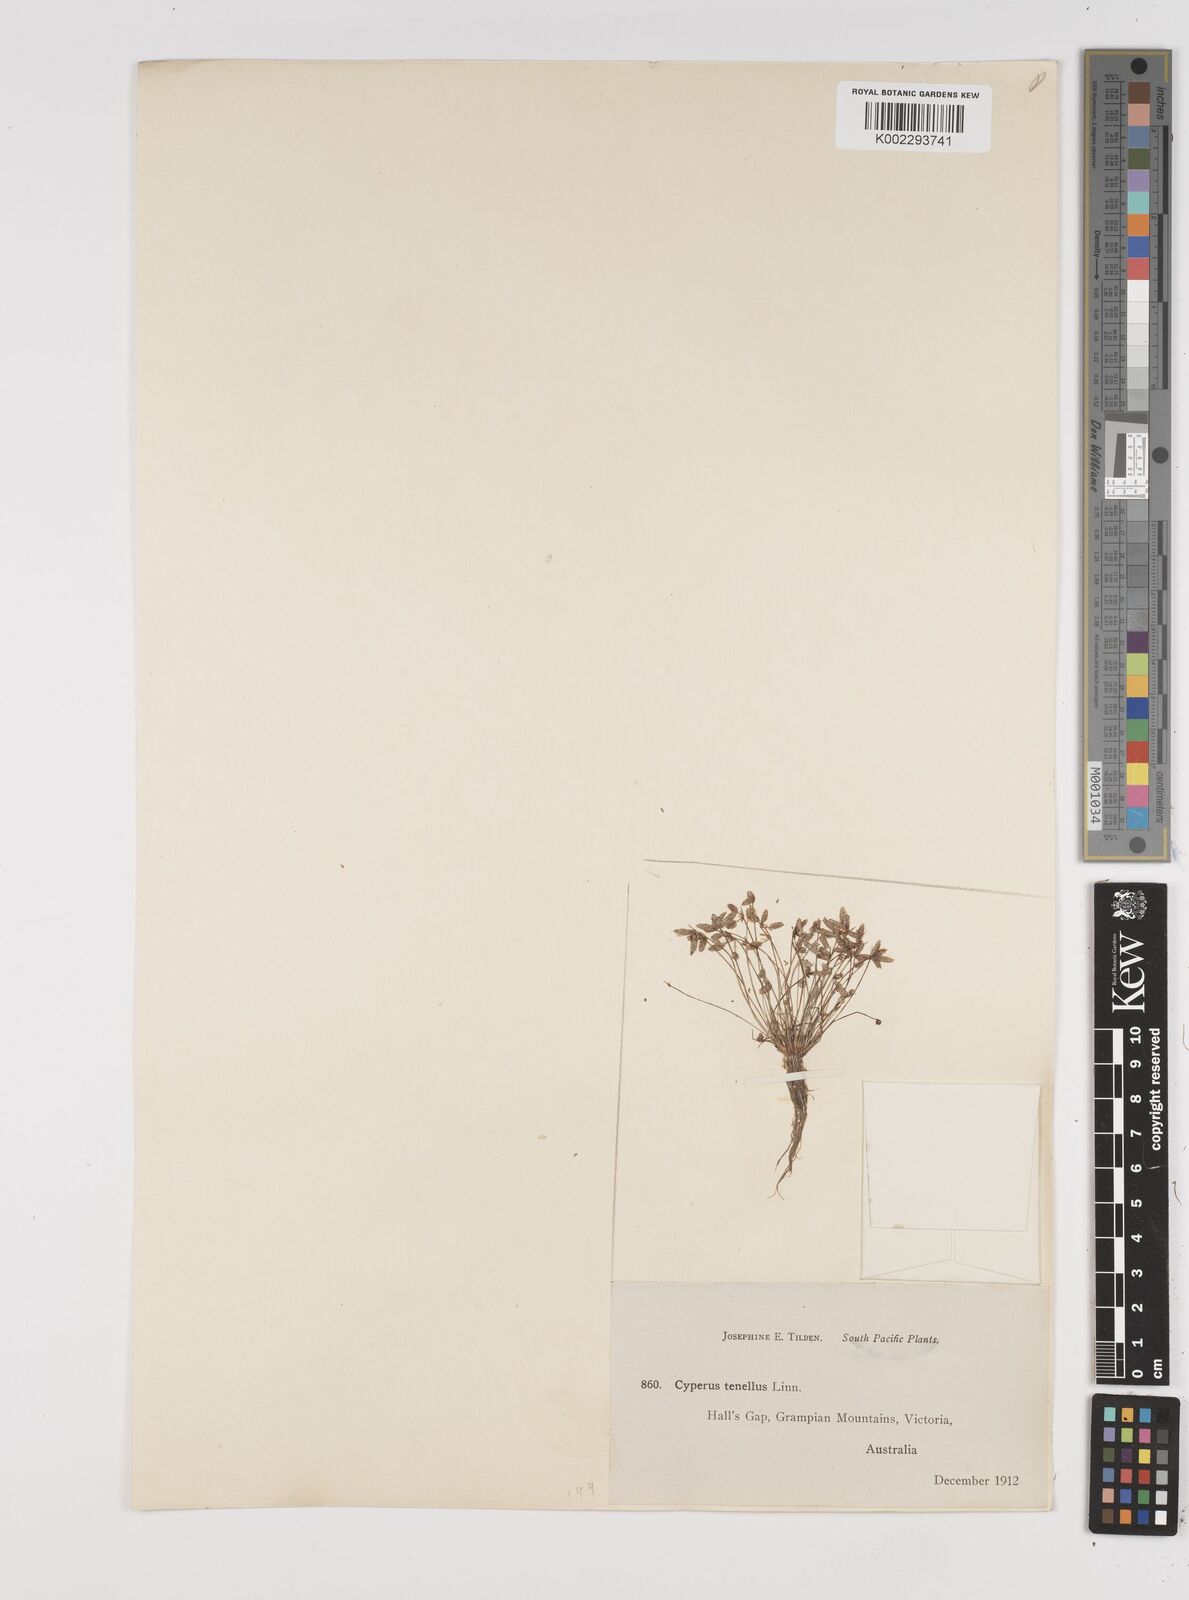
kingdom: Plantae
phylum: Tracheophyta
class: Liliopsida
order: Poales
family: Cyperaceae
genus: Isolepis
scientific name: Isolepis levynsiana
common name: Sedge
